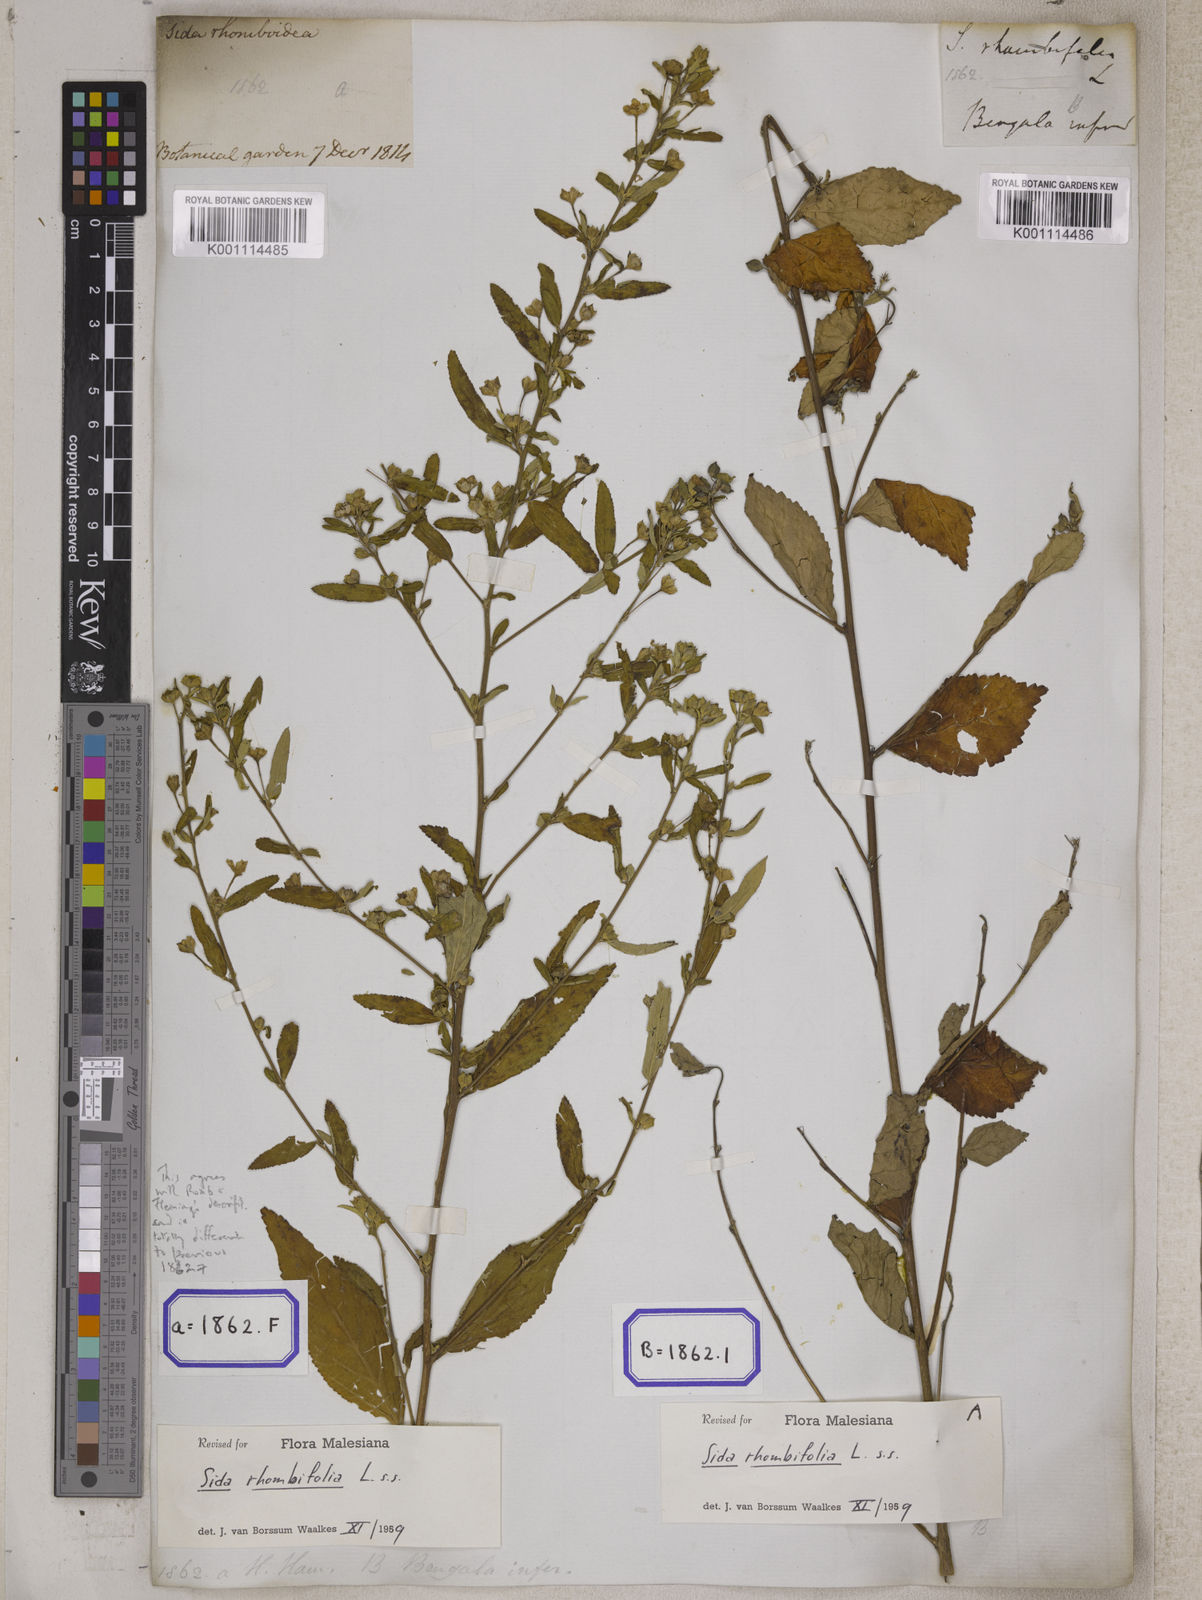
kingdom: Plantae
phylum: Tracheophyta
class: Magnoliopsida
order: Malvales
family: Malvaceae
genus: Sida
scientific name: Sida rhombifolia
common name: Queensland-hemp
